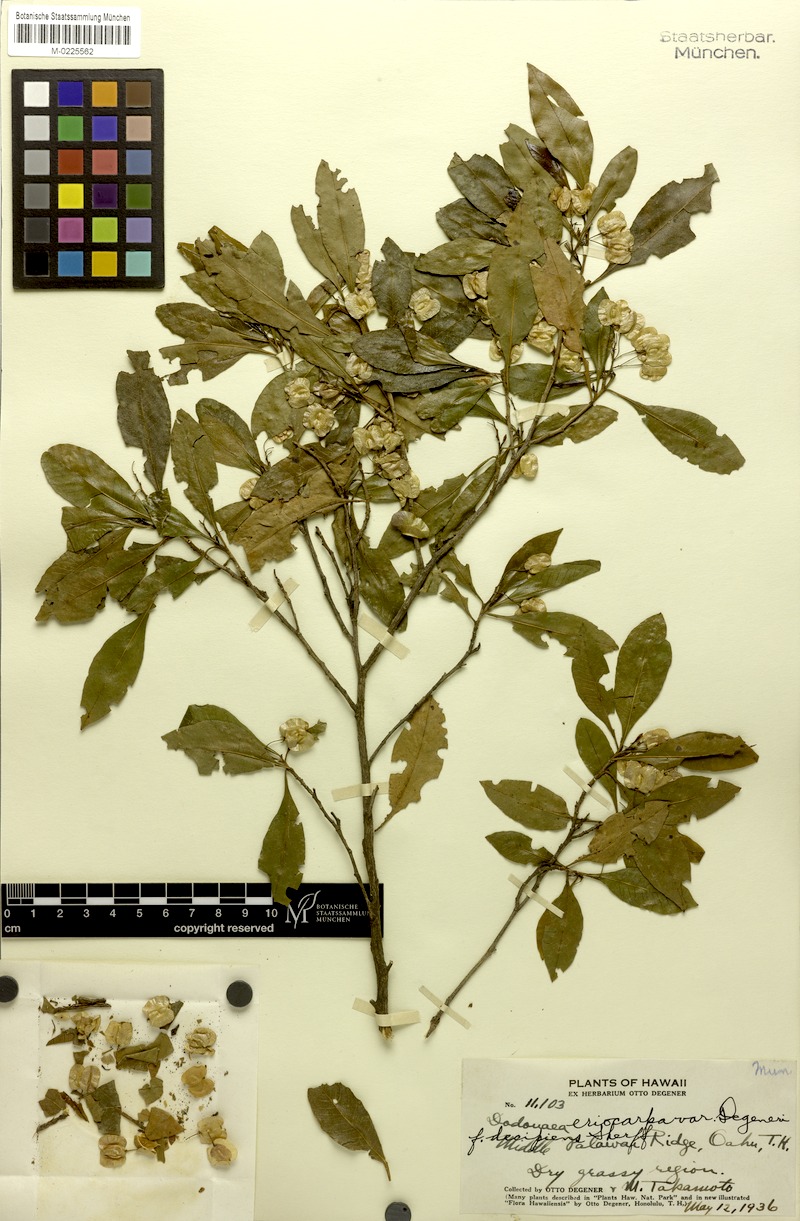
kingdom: Plantae
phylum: Tracheophyta
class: Magnoliopsida
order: Sapindales
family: Sapindaceae
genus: Dodonaea
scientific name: Dodonaea viscosa
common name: Hopbush
